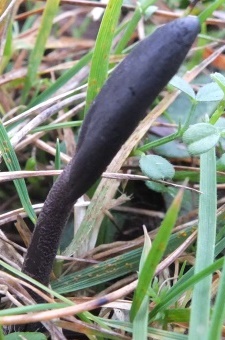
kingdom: Fungi
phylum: Ascomycota
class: Geoglossomycetes
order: Geoglossales
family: Geoglossaceae
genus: Geoglossum
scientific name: Geoglossum fallax
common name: småskællet jordtunge
